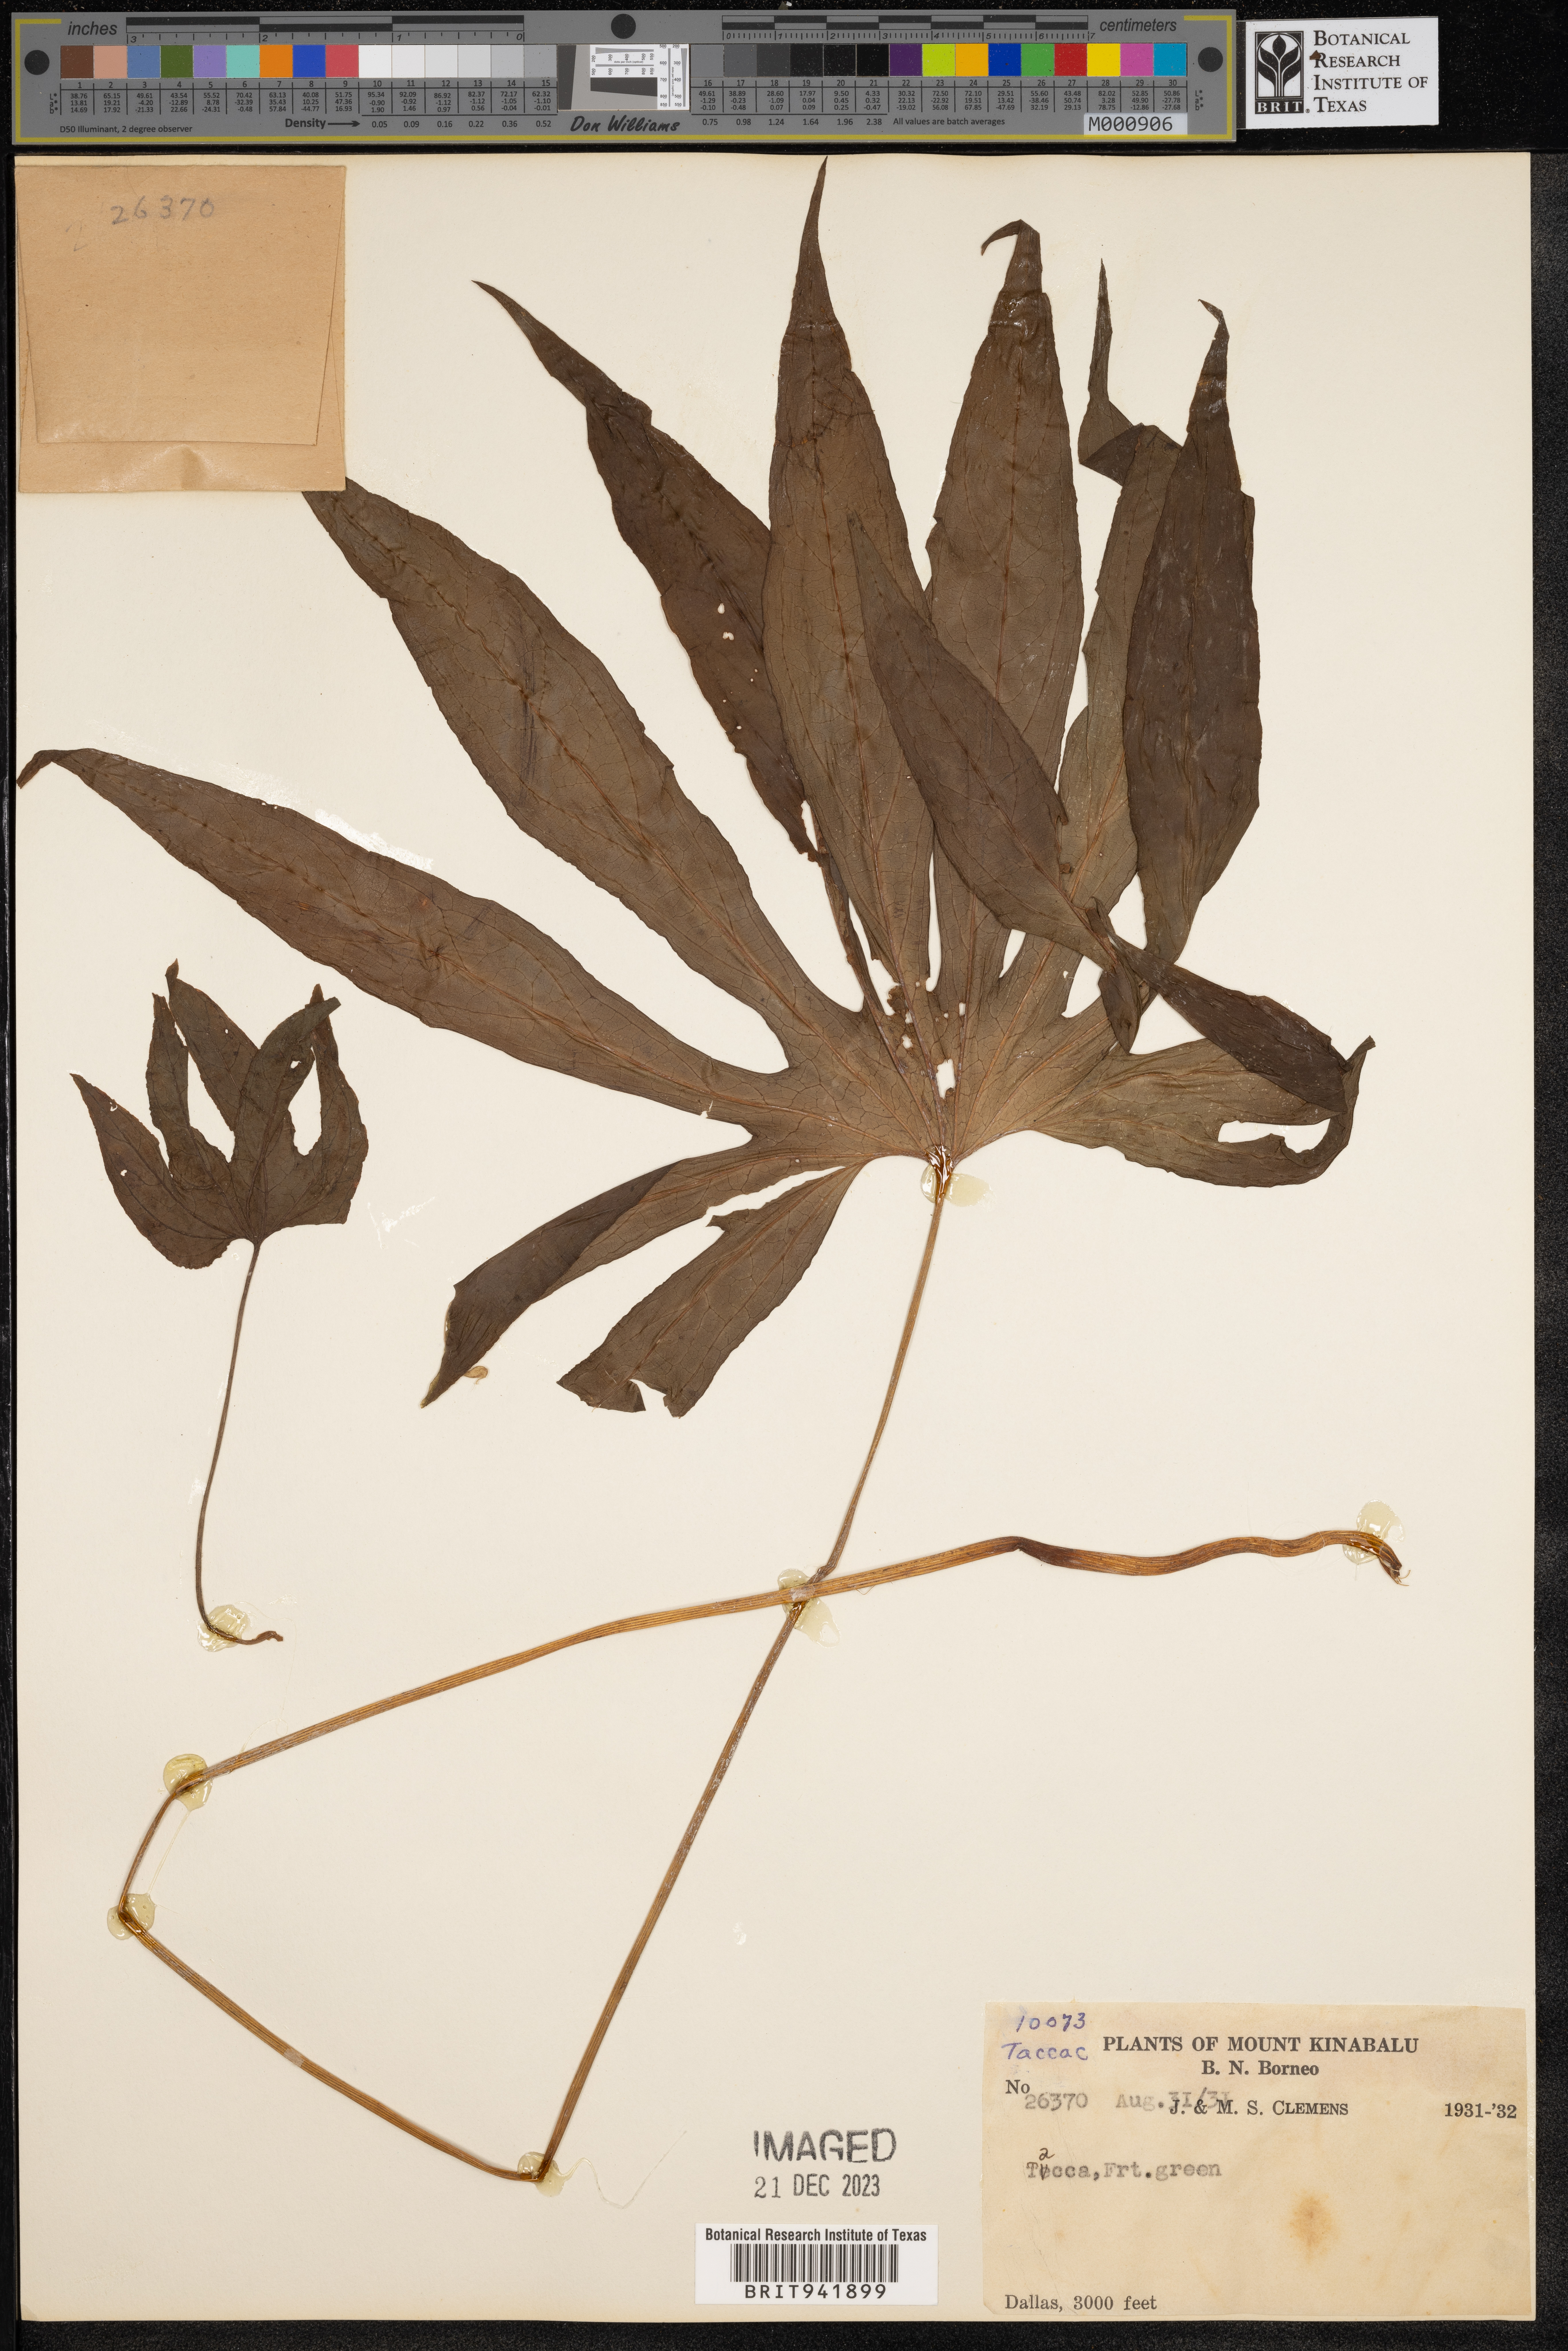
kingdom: Plantae
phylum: Tracheophyta
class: Liliopsida
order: Dioscoreales
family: Dioscoreaceae
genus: Tacca
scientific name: Tacca
